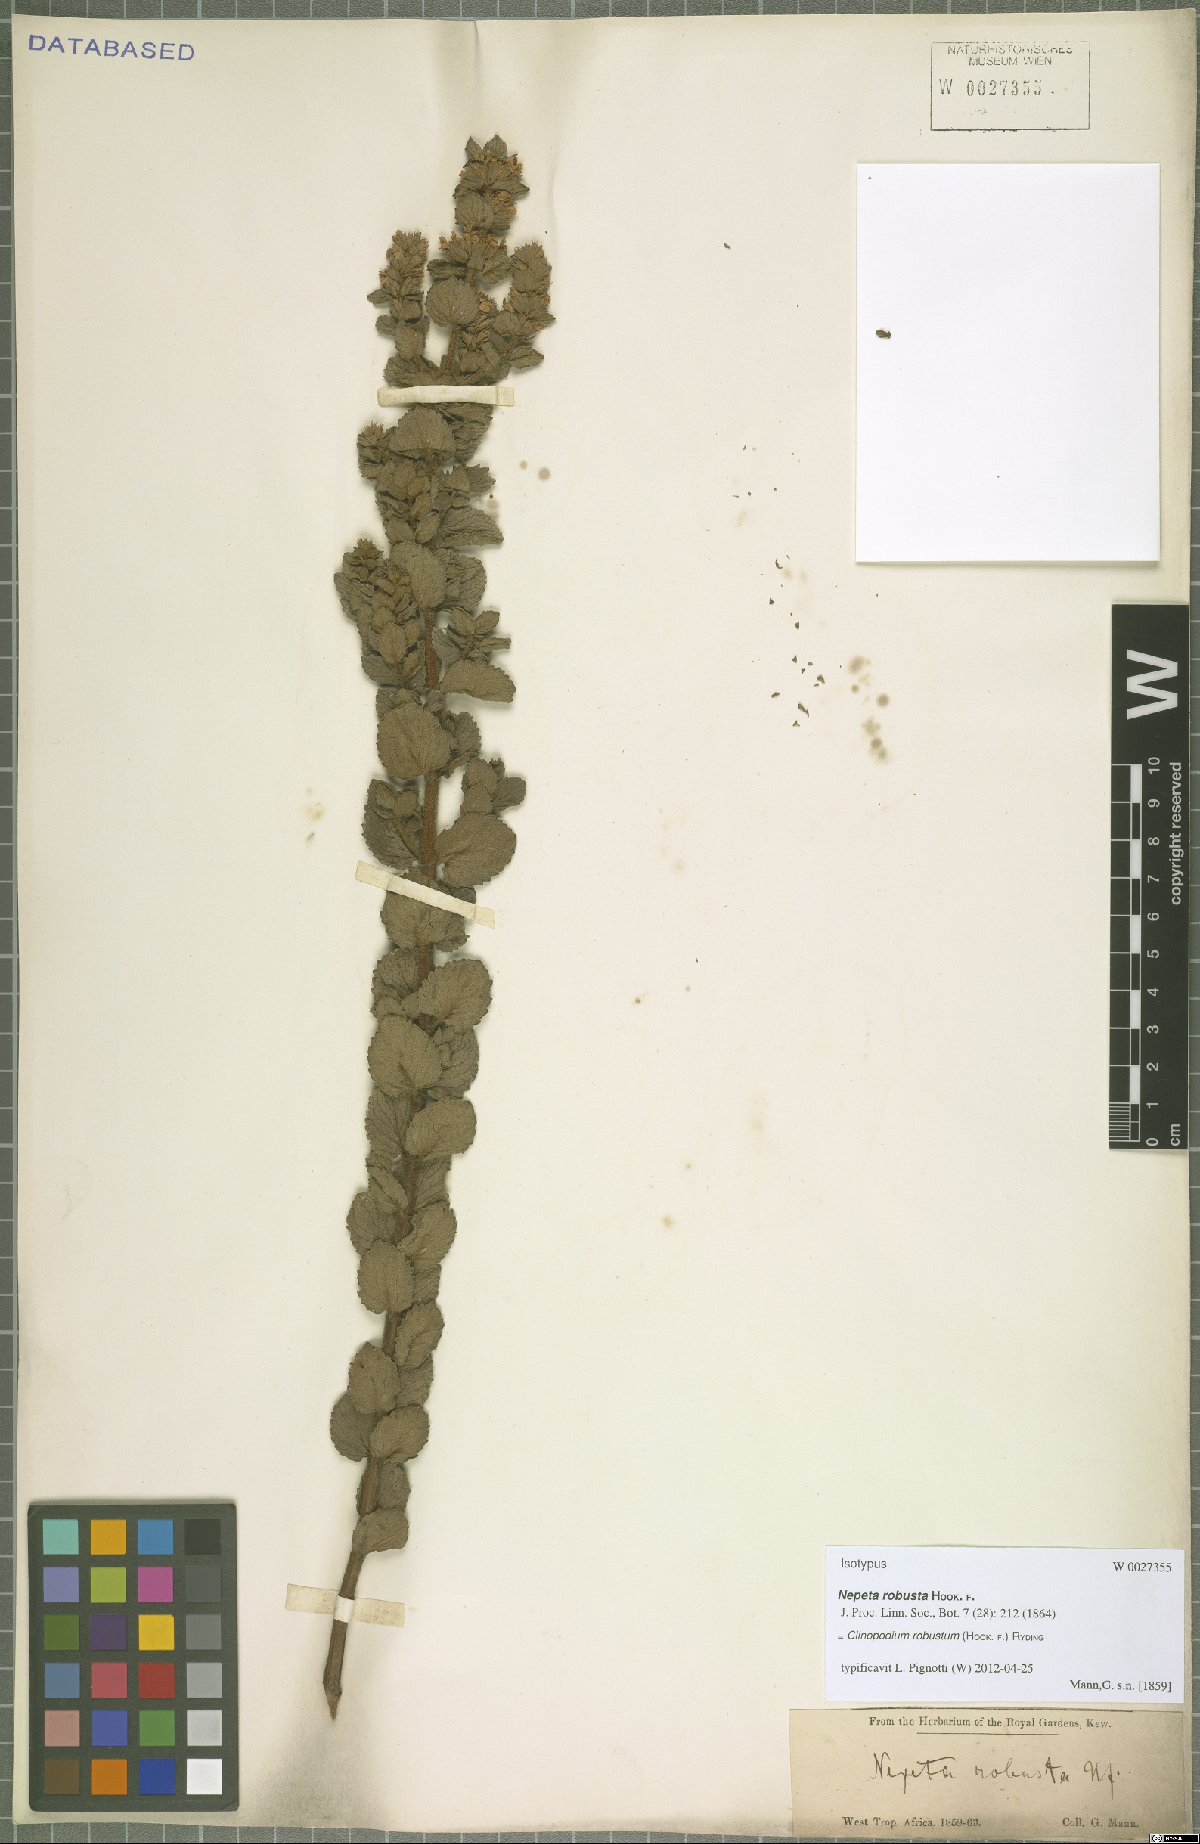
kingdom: Plantae
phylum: Tracheophyta
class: Magnoliopsida
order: Lamiales
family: Lamiaceae
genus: Clinopodium
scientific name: Clinopodium robustum
